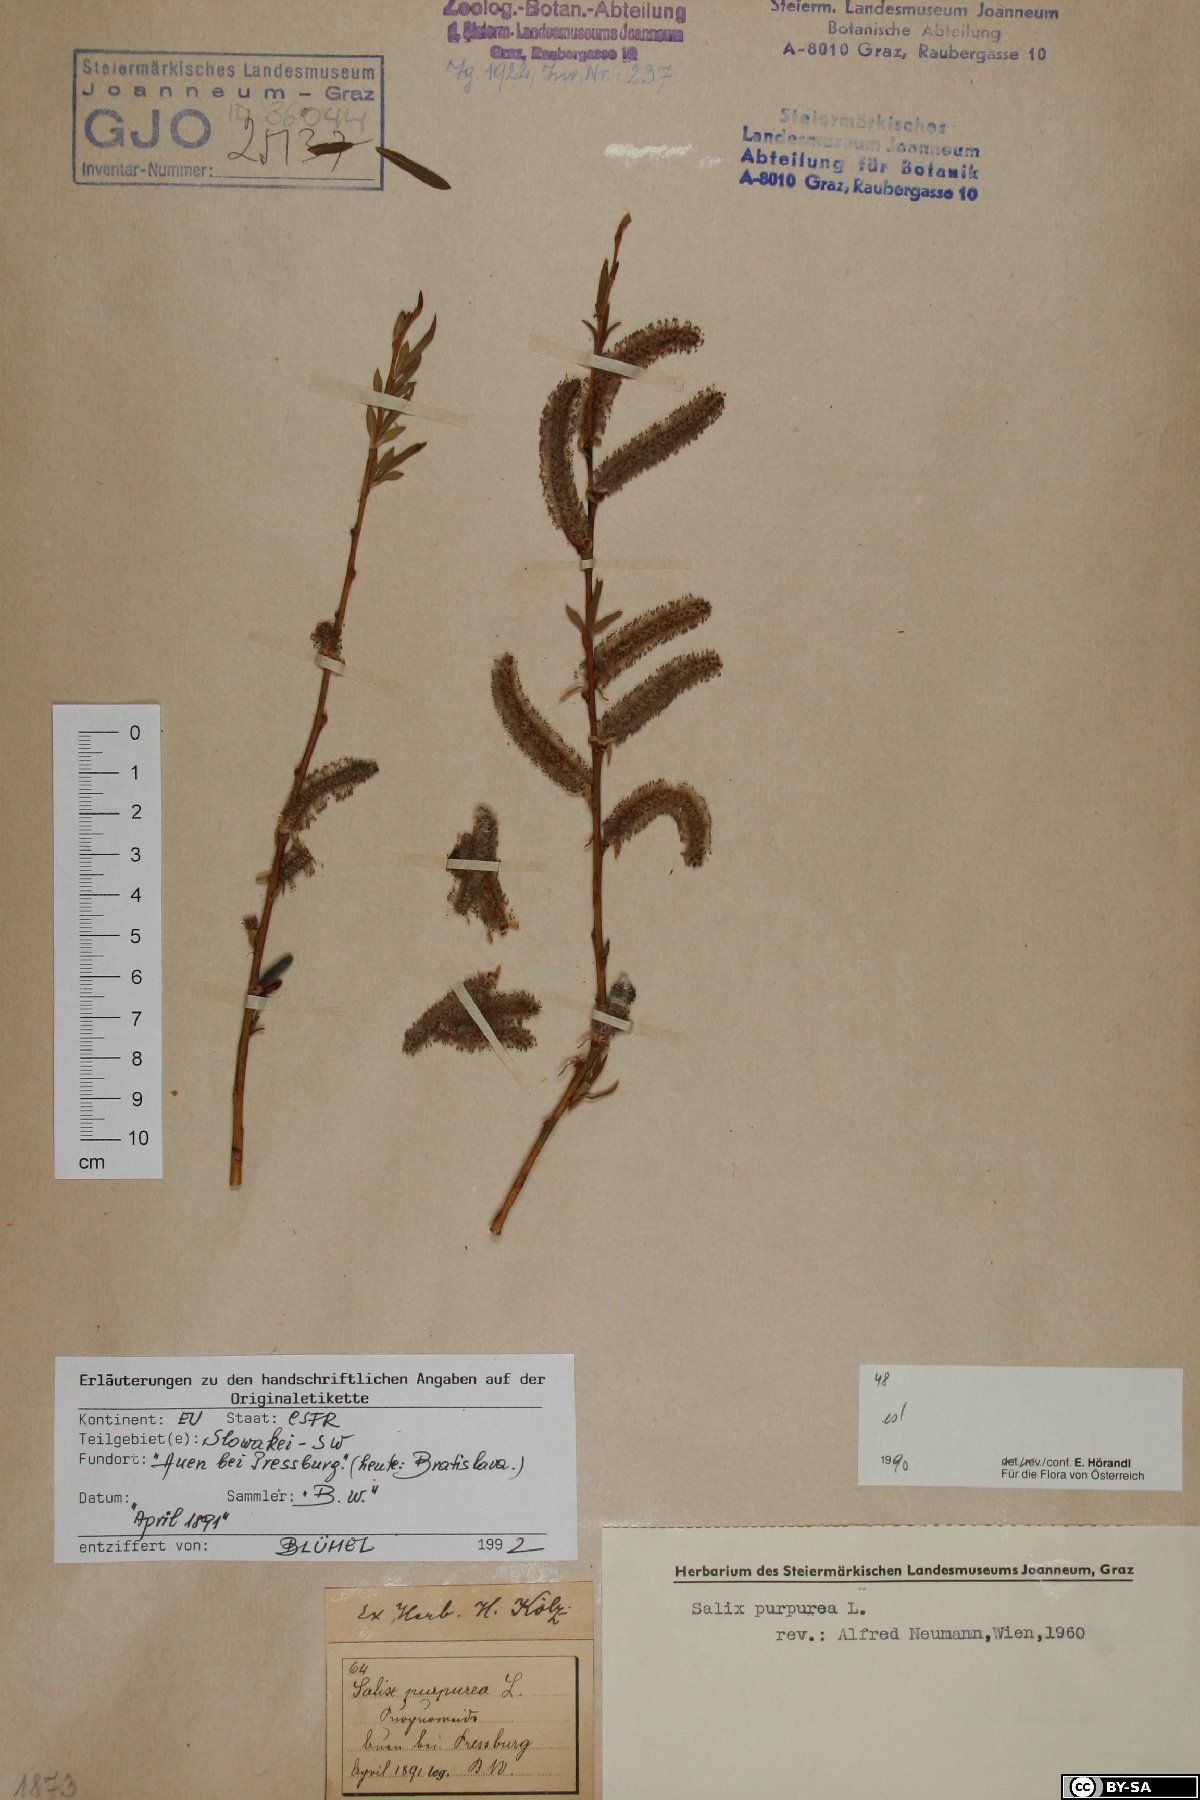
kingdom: Plantae
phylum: Tracheophyta
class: Magnoliopsida
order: Malpighiales
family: Salicaceae
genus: Salix
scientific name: Salix purpurea
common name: Purple willow
